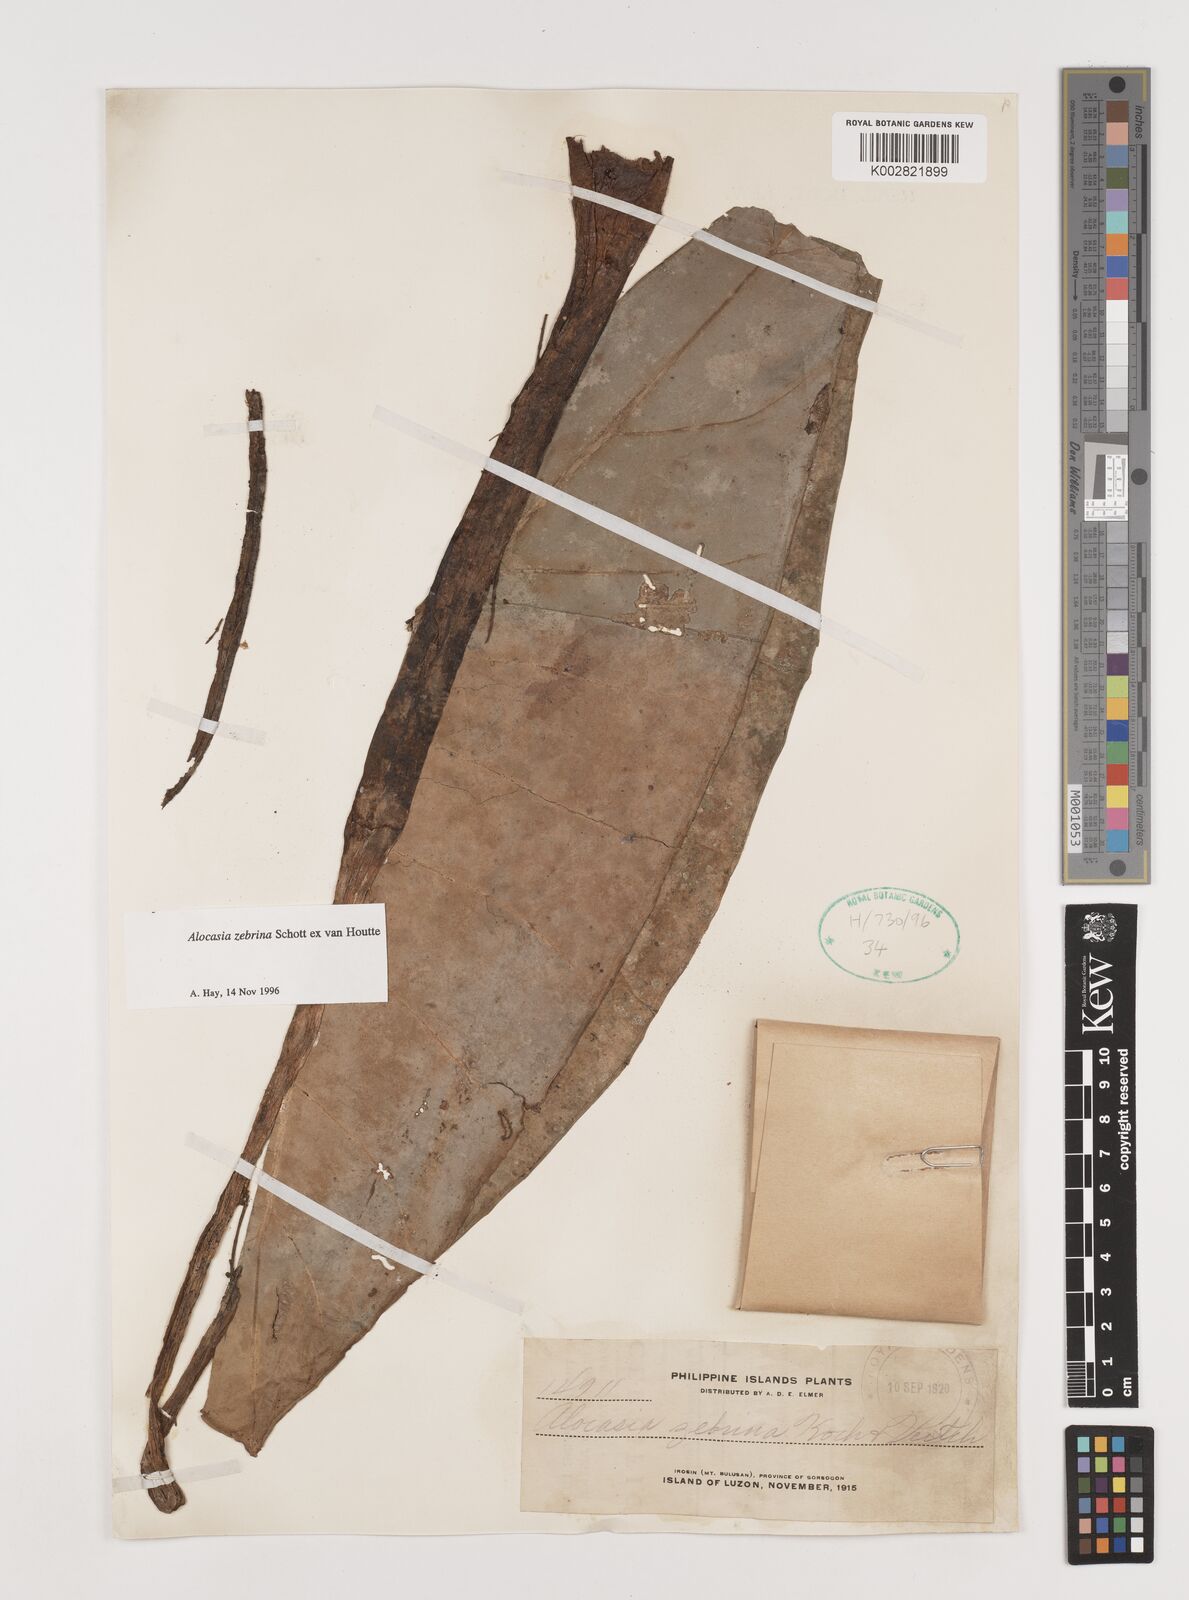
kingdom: Plantae
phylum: Tracheophyta
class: Liliopsida
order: Alismatales
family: Araceae
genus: Alocasia
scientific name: Alocasia zebrina
